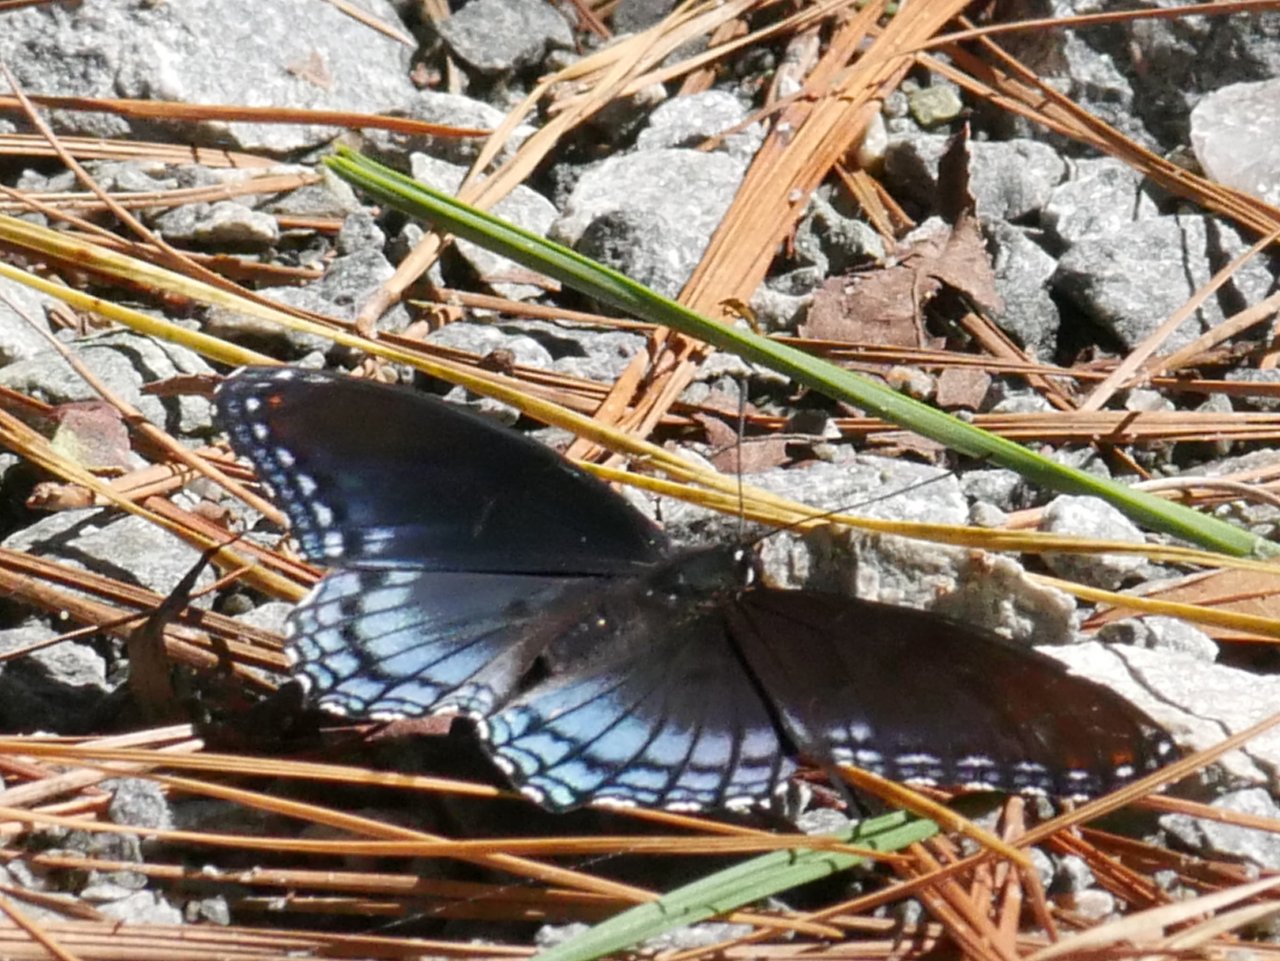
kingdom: Animalia
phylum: Arthropoda
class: Insecta
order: Lepidoptera
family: Nymphalidae
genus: Limenitis
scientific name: Limenitis astyanax
